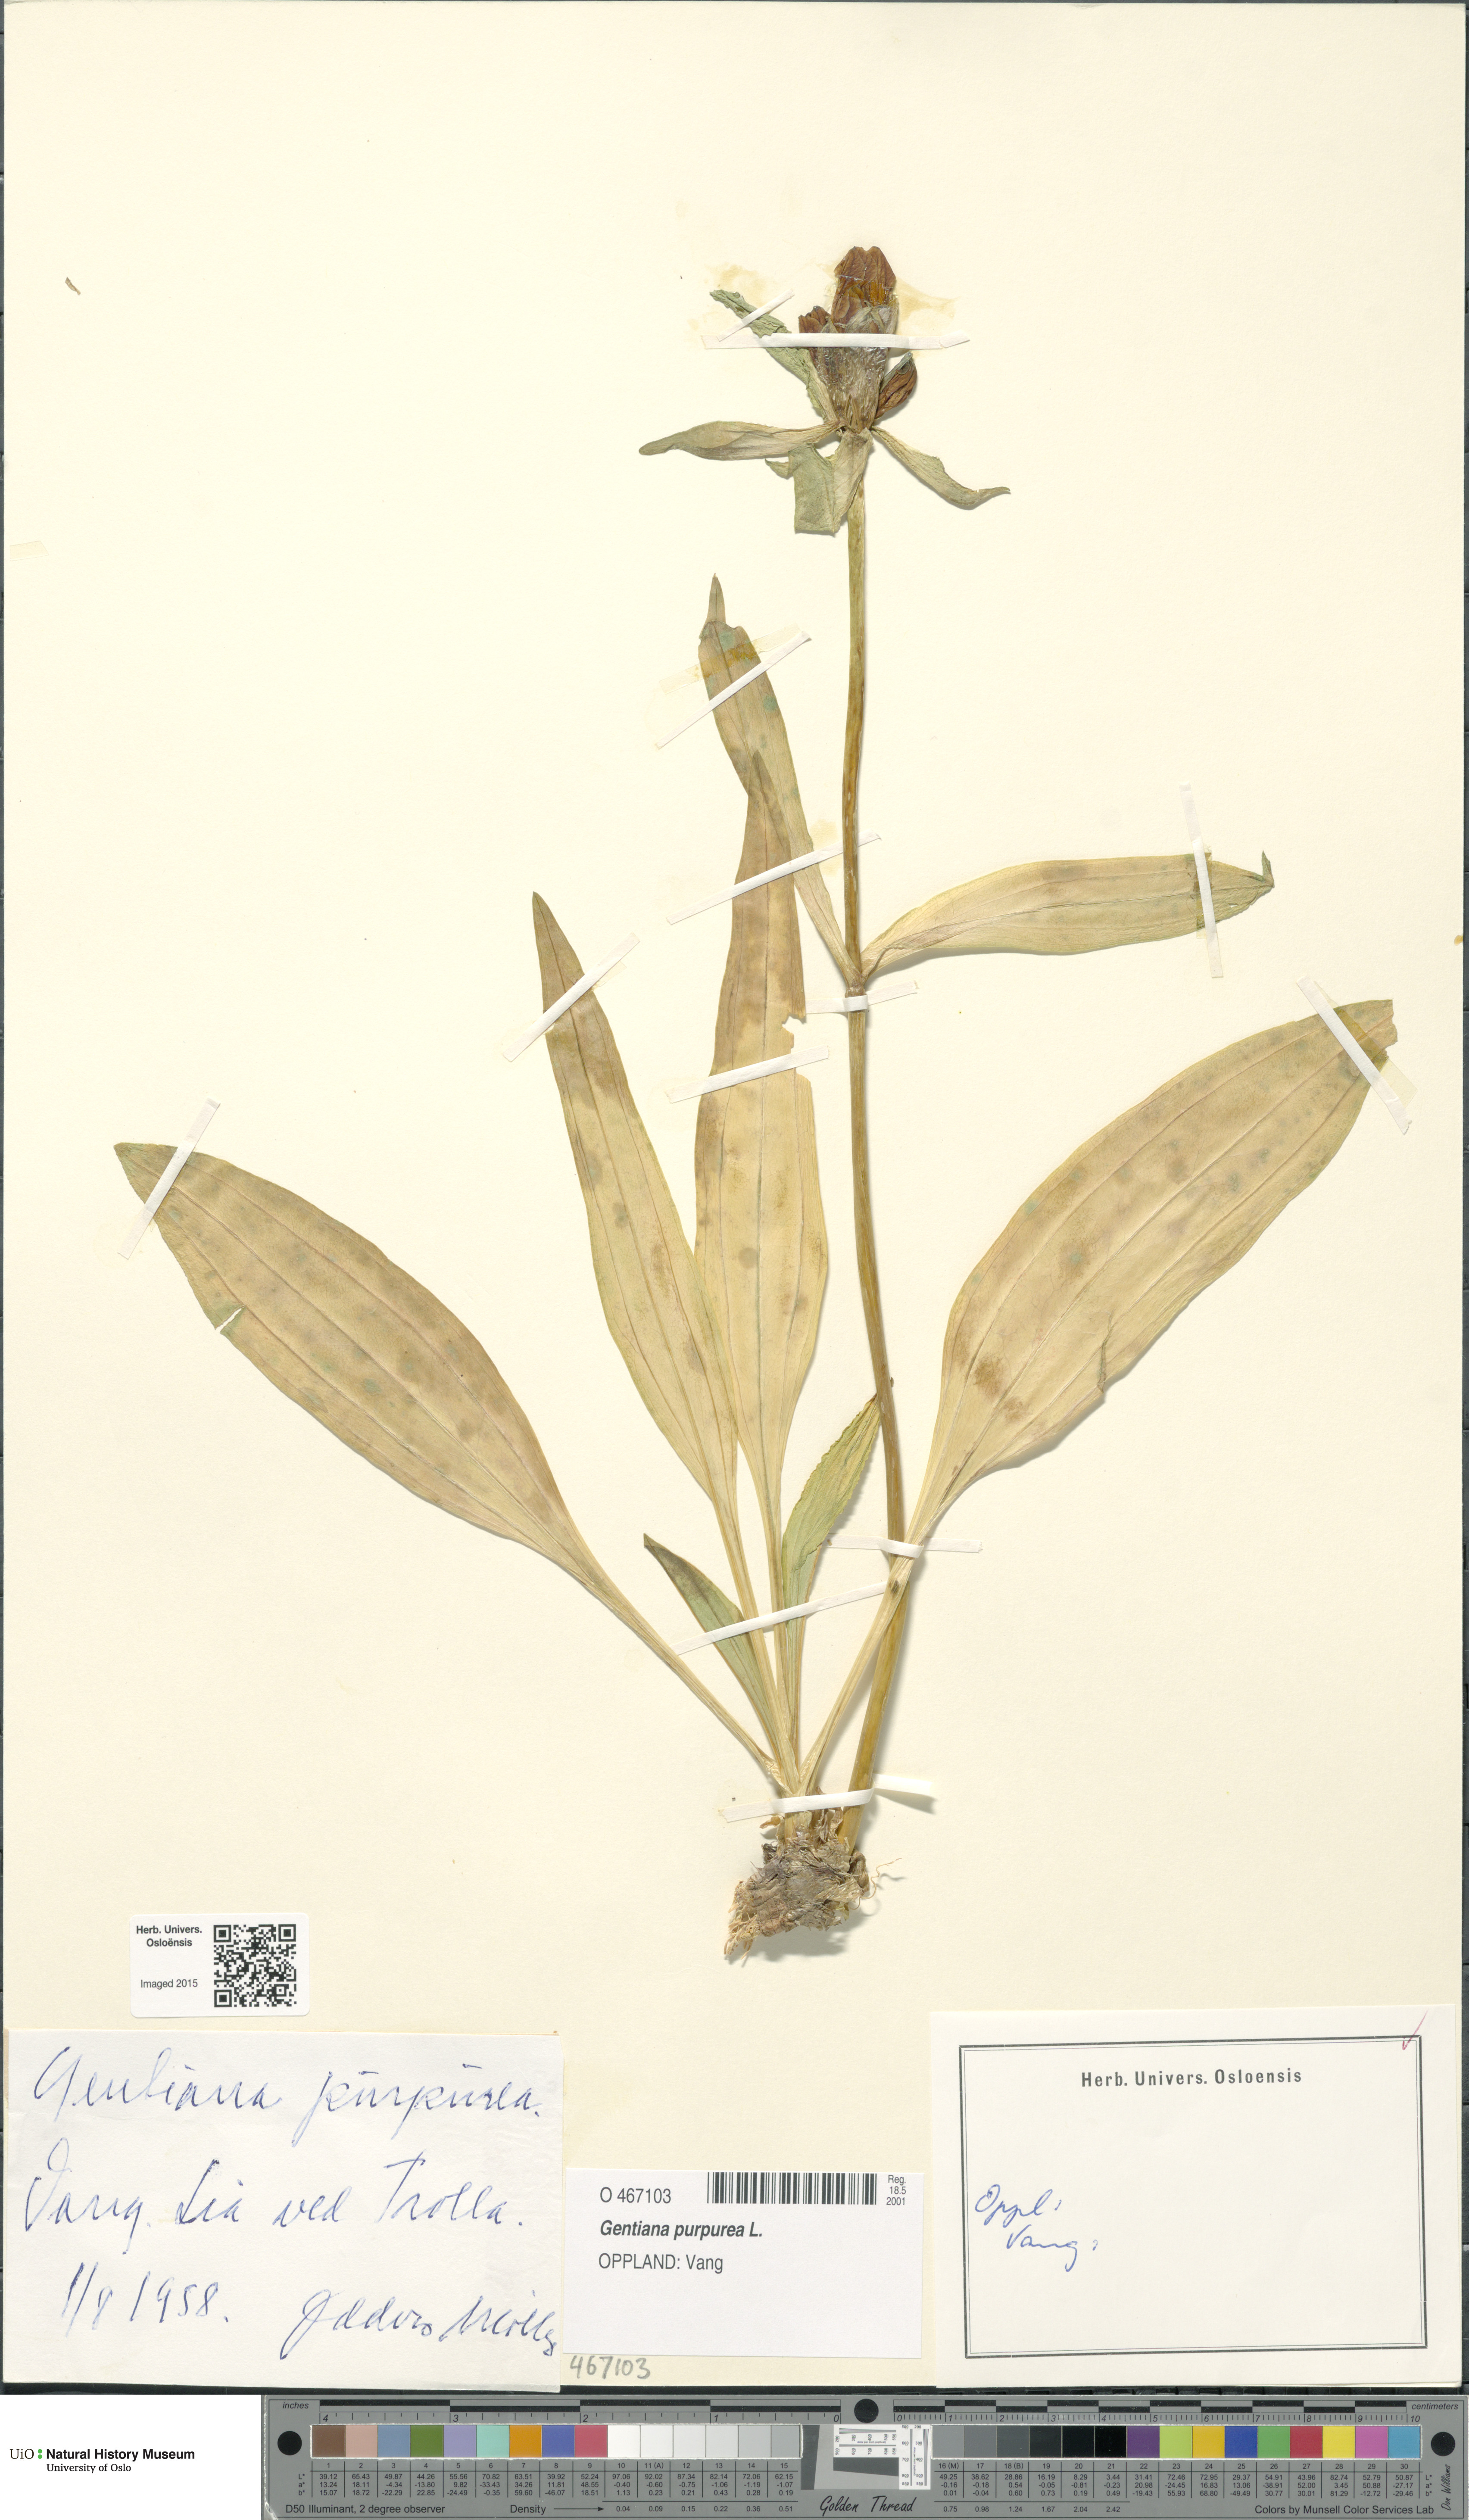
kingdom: Plantae
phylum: Tracheophyta
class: Magnoliopsida
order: Gentianales
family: Gentianaceae
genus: Gentiana
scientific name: Gentiana purpurea
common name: Purple gentian
